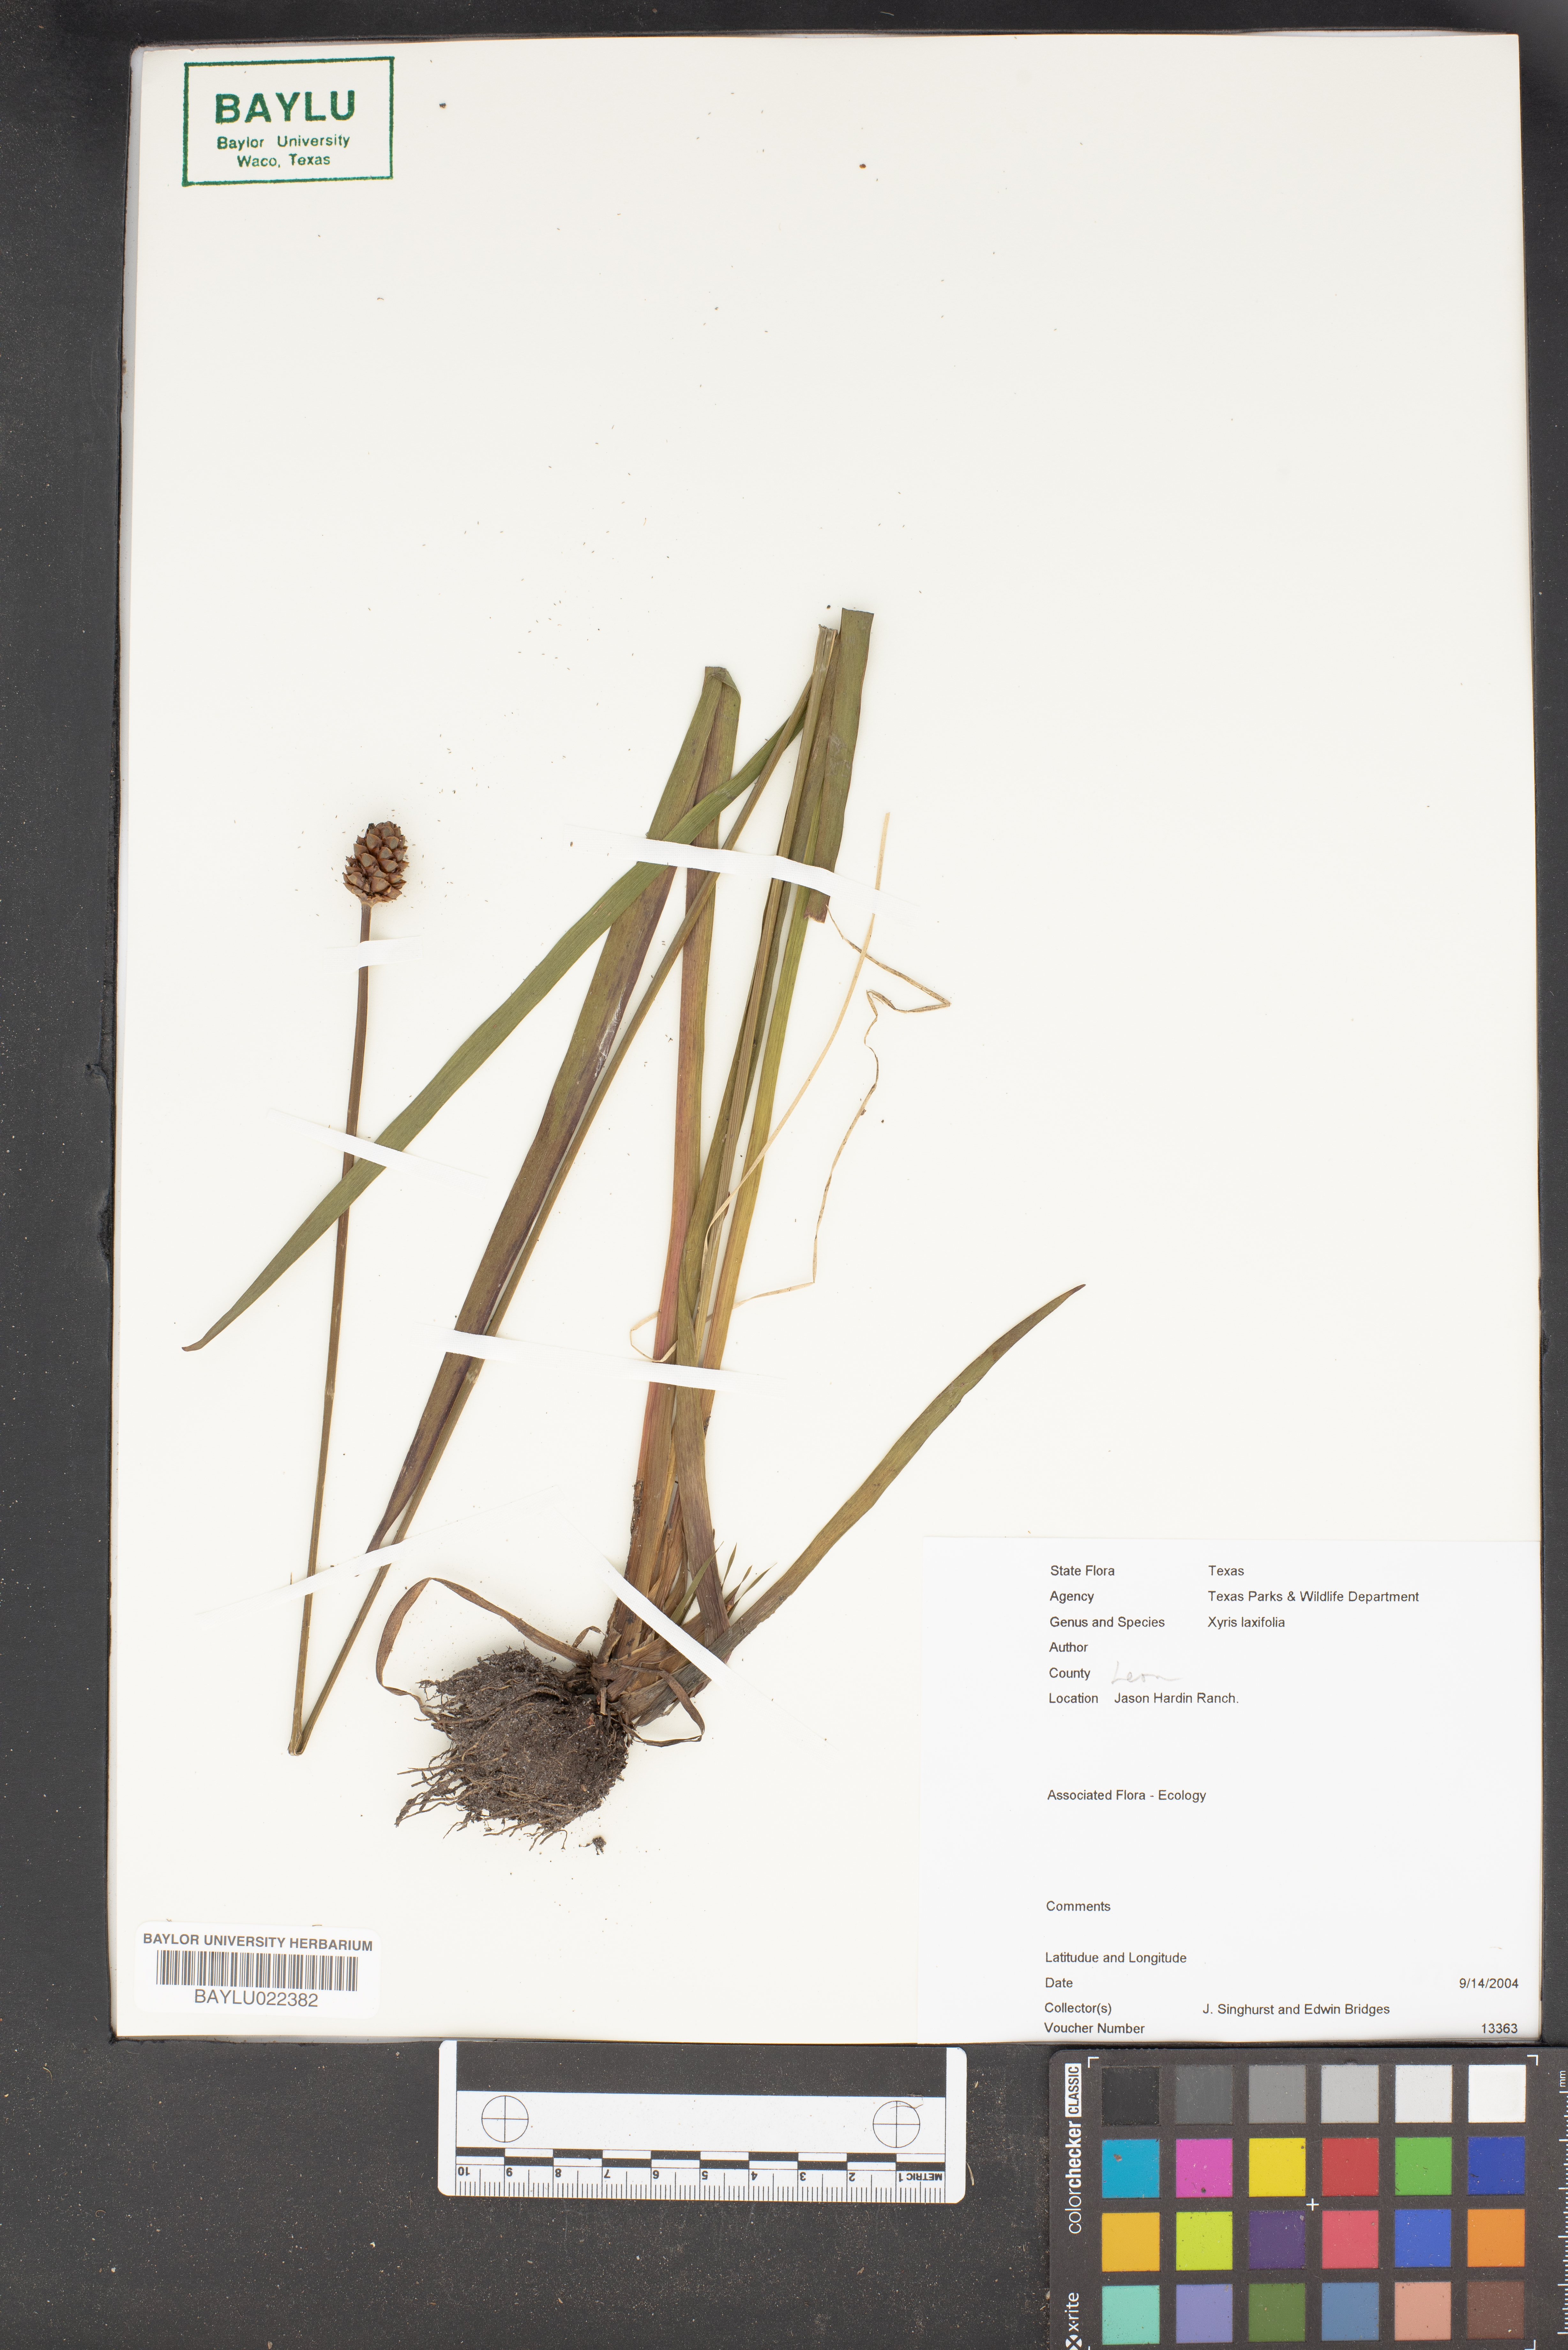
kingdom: Plantae
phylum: Tracheophyta
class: Liliopsida
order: Poales
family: Xyridaceae
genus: Xyris
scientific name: Xyris laxifolia
